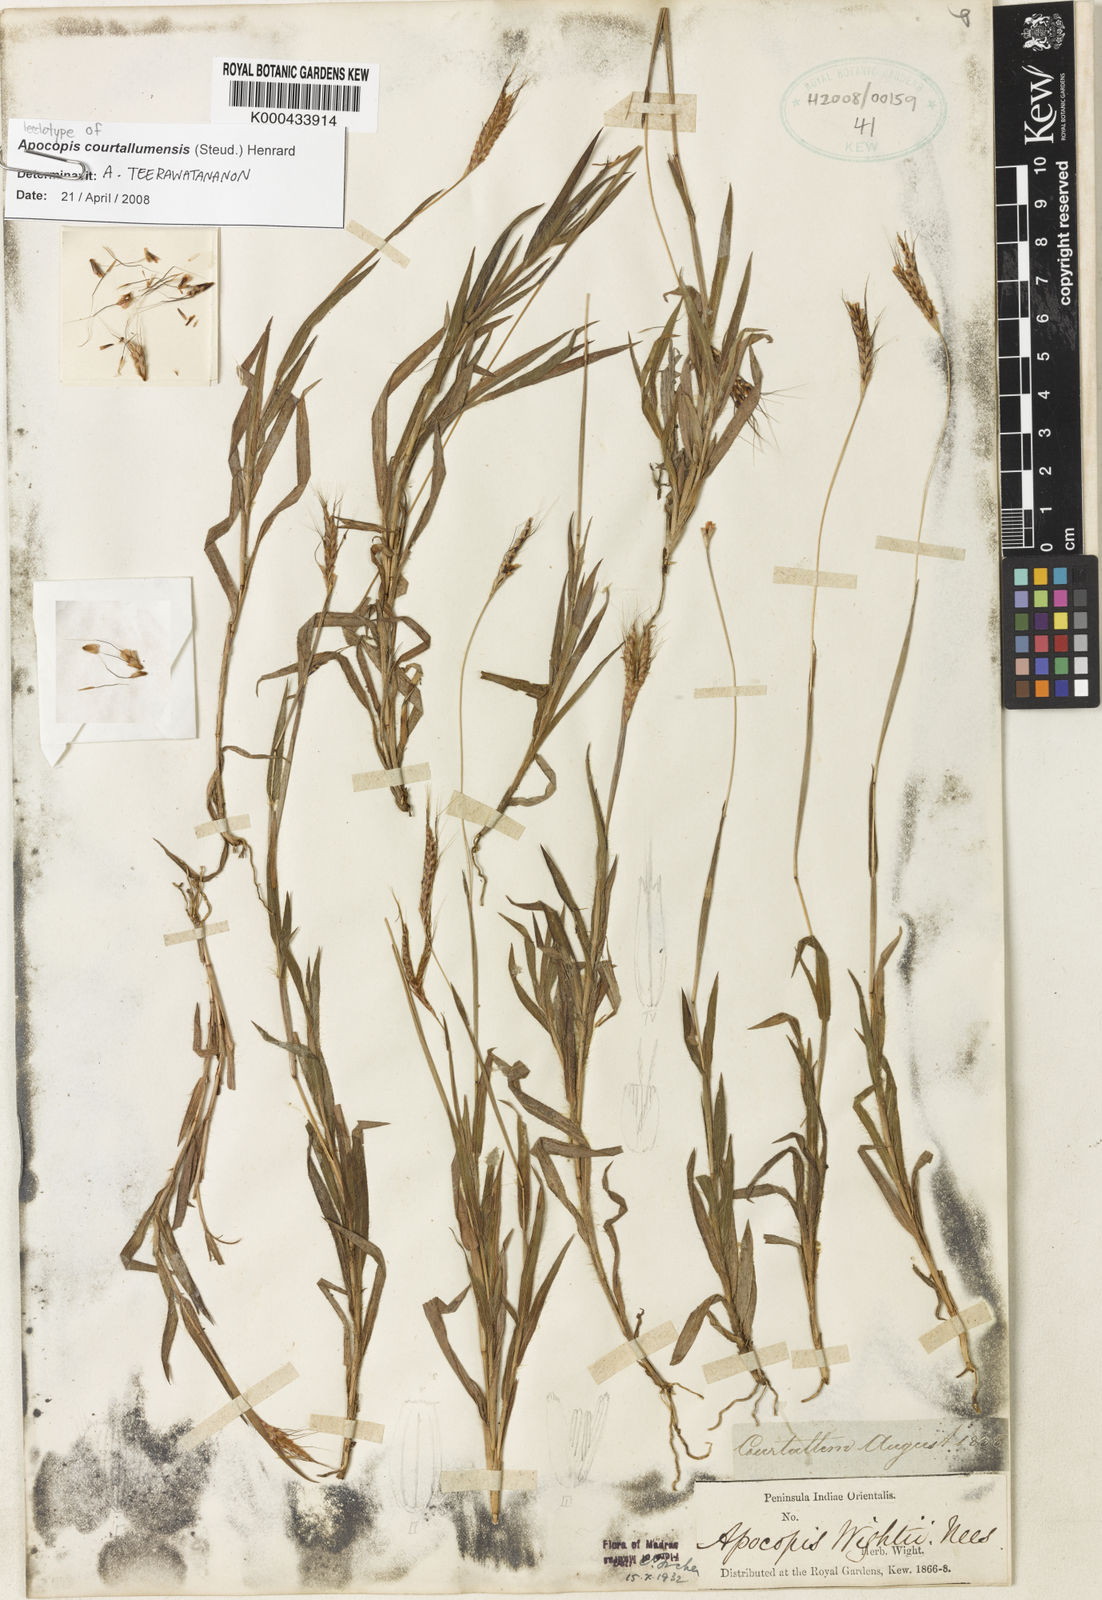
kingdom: Plantae
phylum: Tracheophyta
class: Liliopsida
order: Poales
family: Poaceae
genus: Apocopis
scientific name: Apocopis courtallumensis
